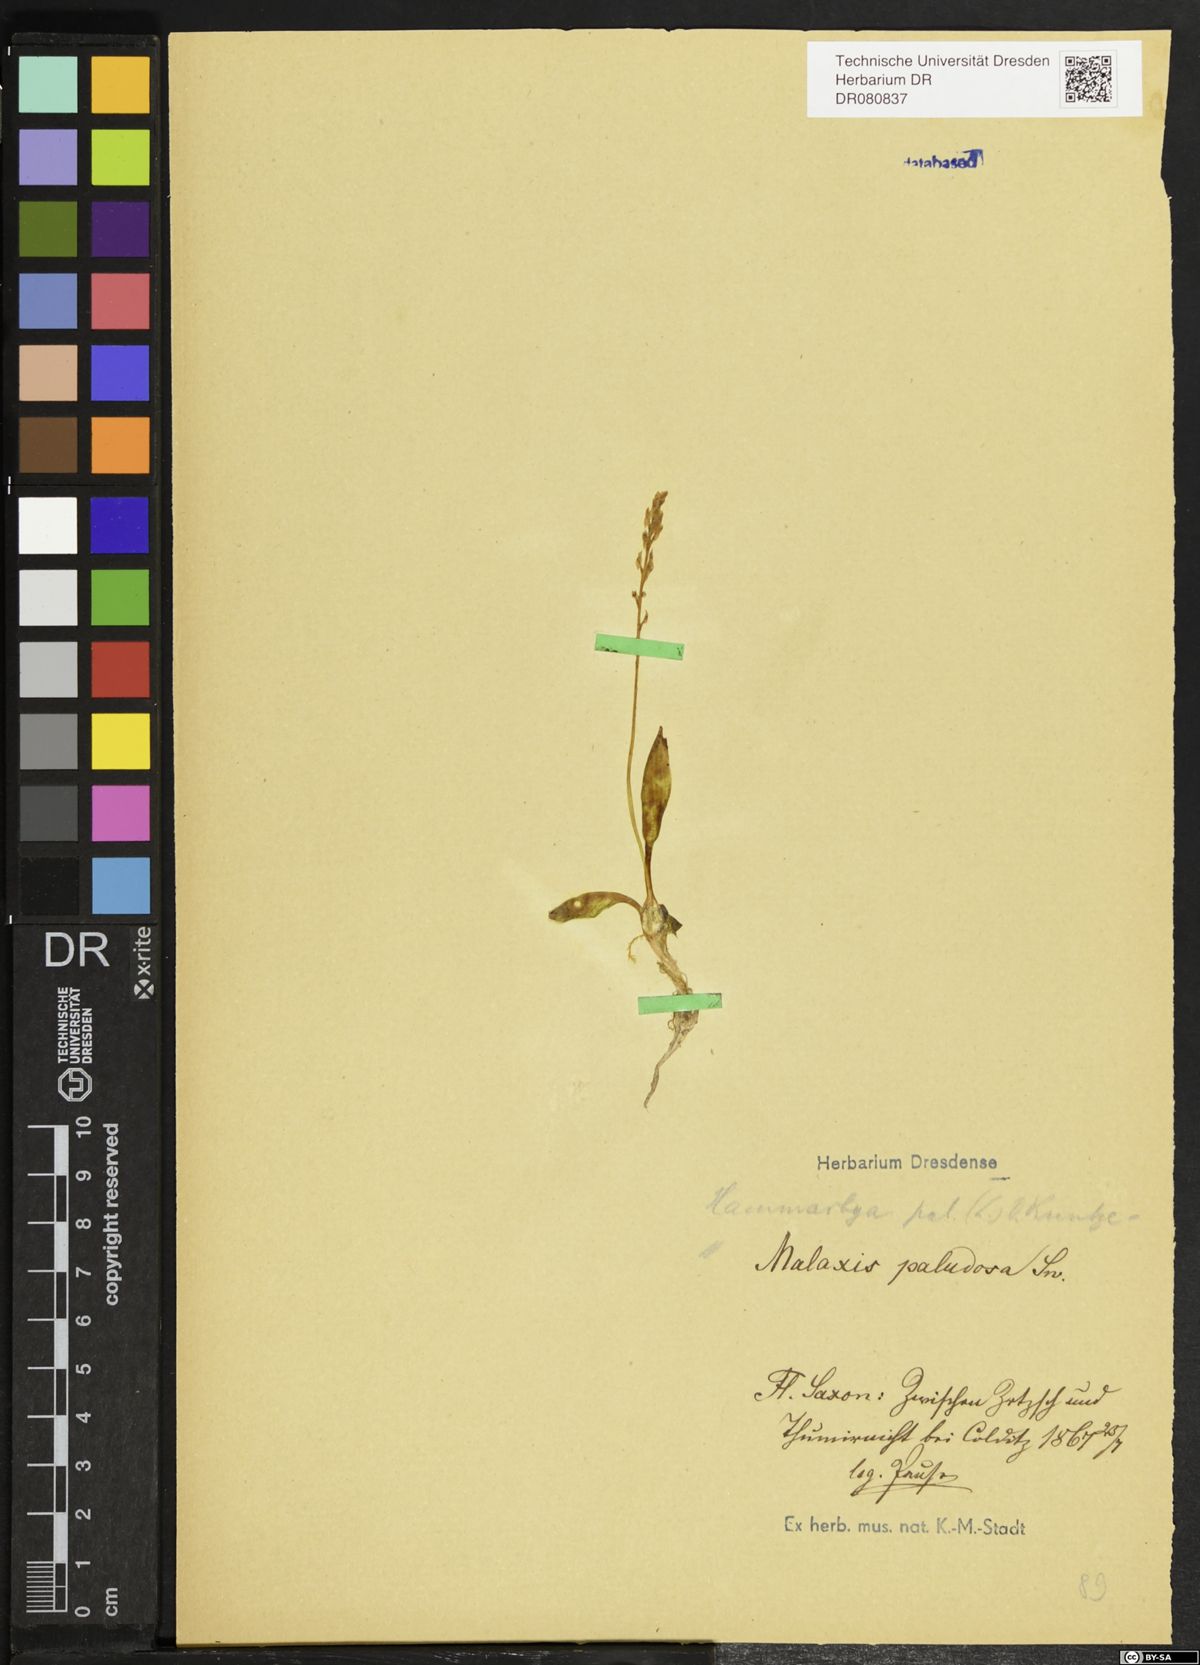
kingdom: Plantae
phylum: Tracheophyta
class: Liliopsida
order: Asparagales
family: Orchidaceae
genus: Hammarbya
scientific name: Hammarbya paludosa
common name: Bog orchid
